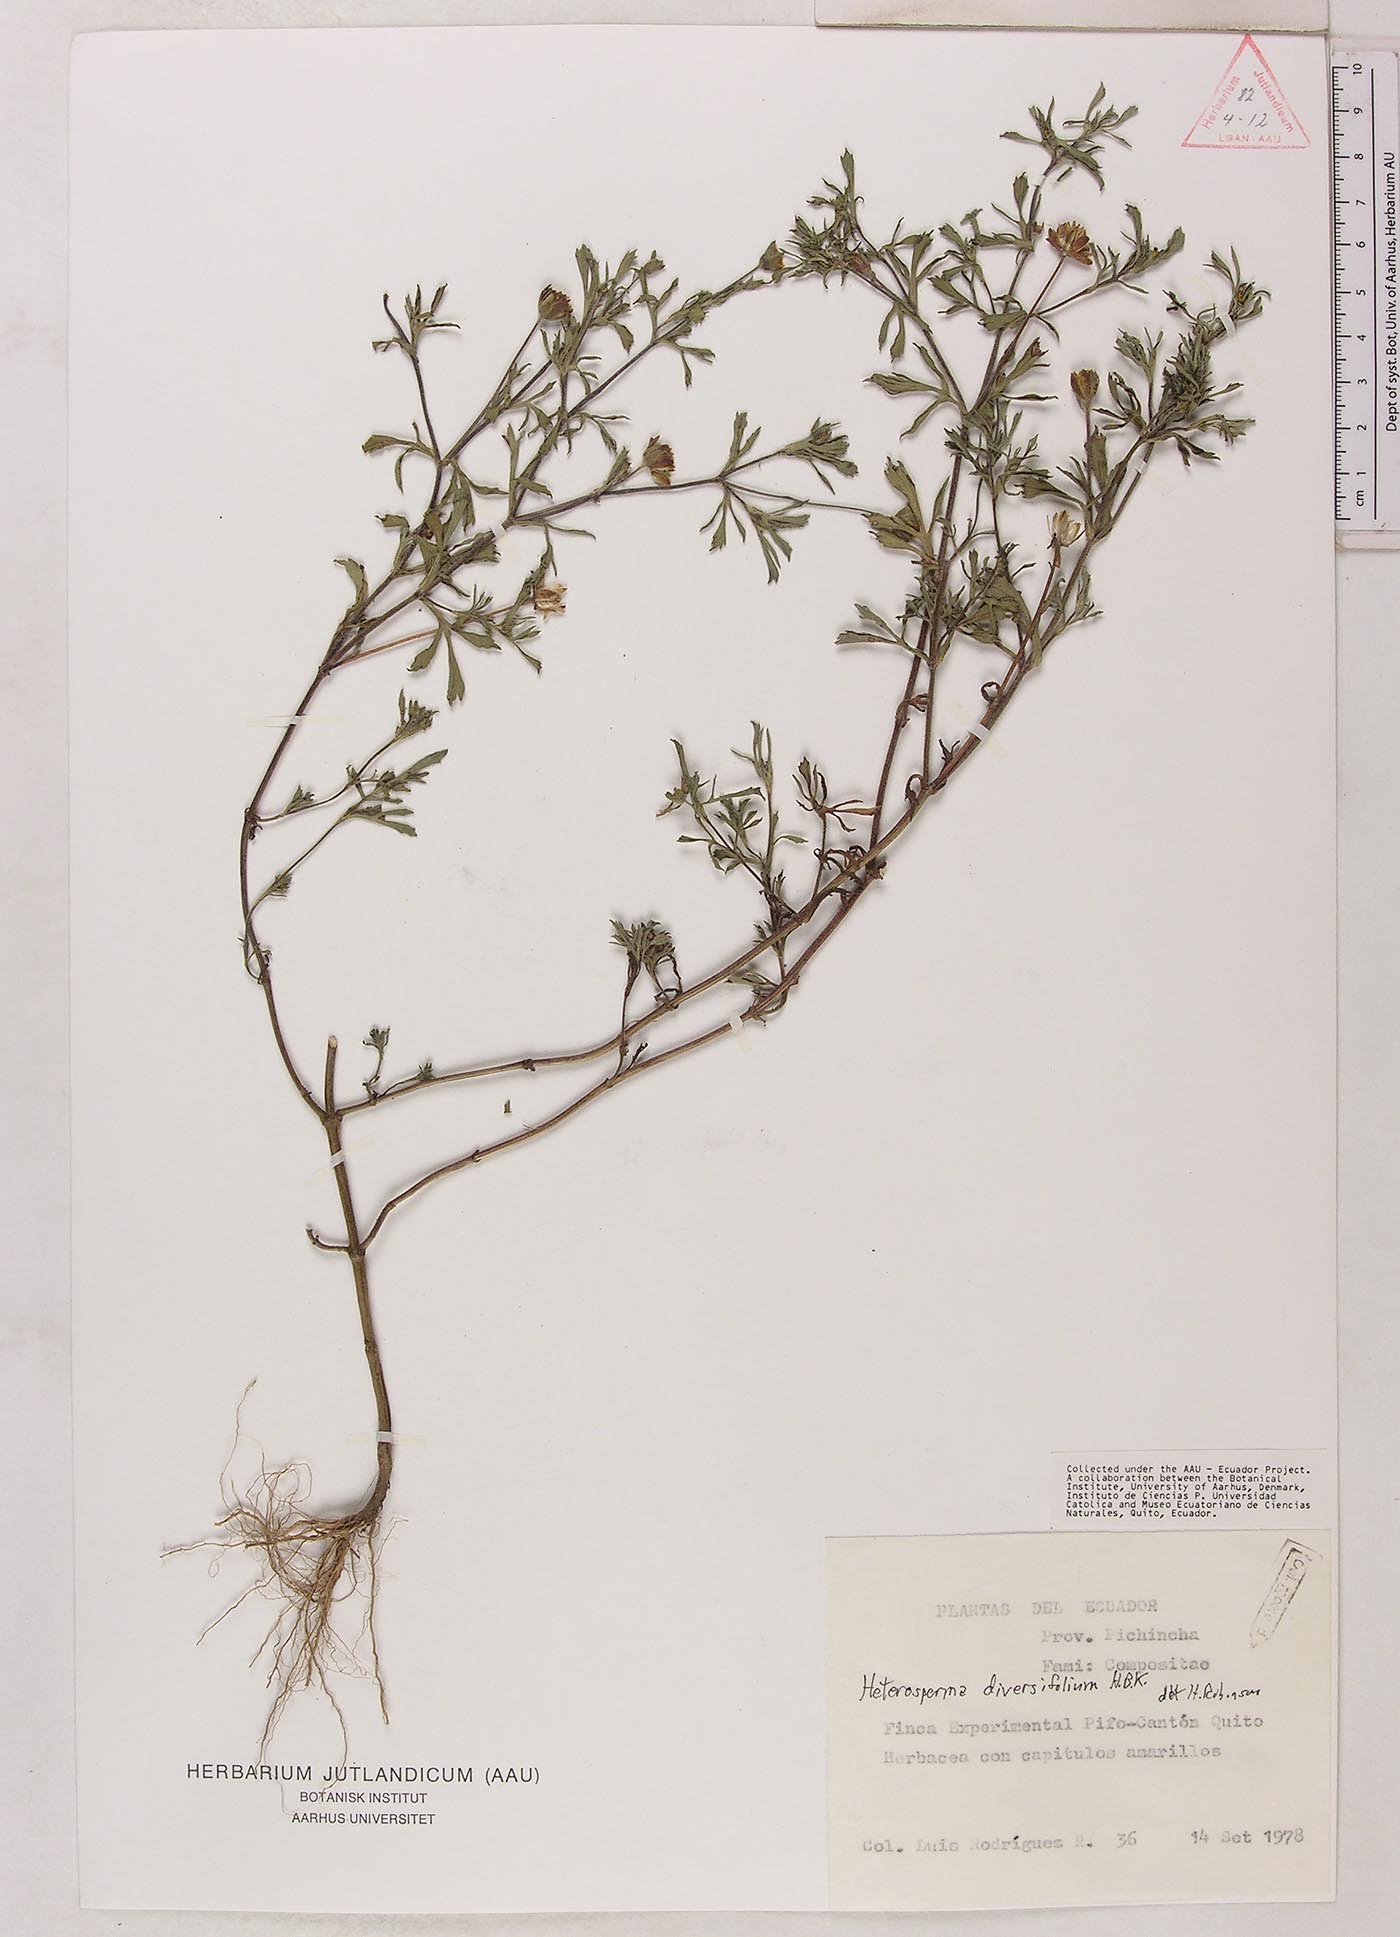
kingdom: Plantae
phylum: Tracheophyta
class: Magnoliopsida
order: Asterales
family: Asteraceae
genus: Heterosperma
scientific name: Heterosperma diversifolium
